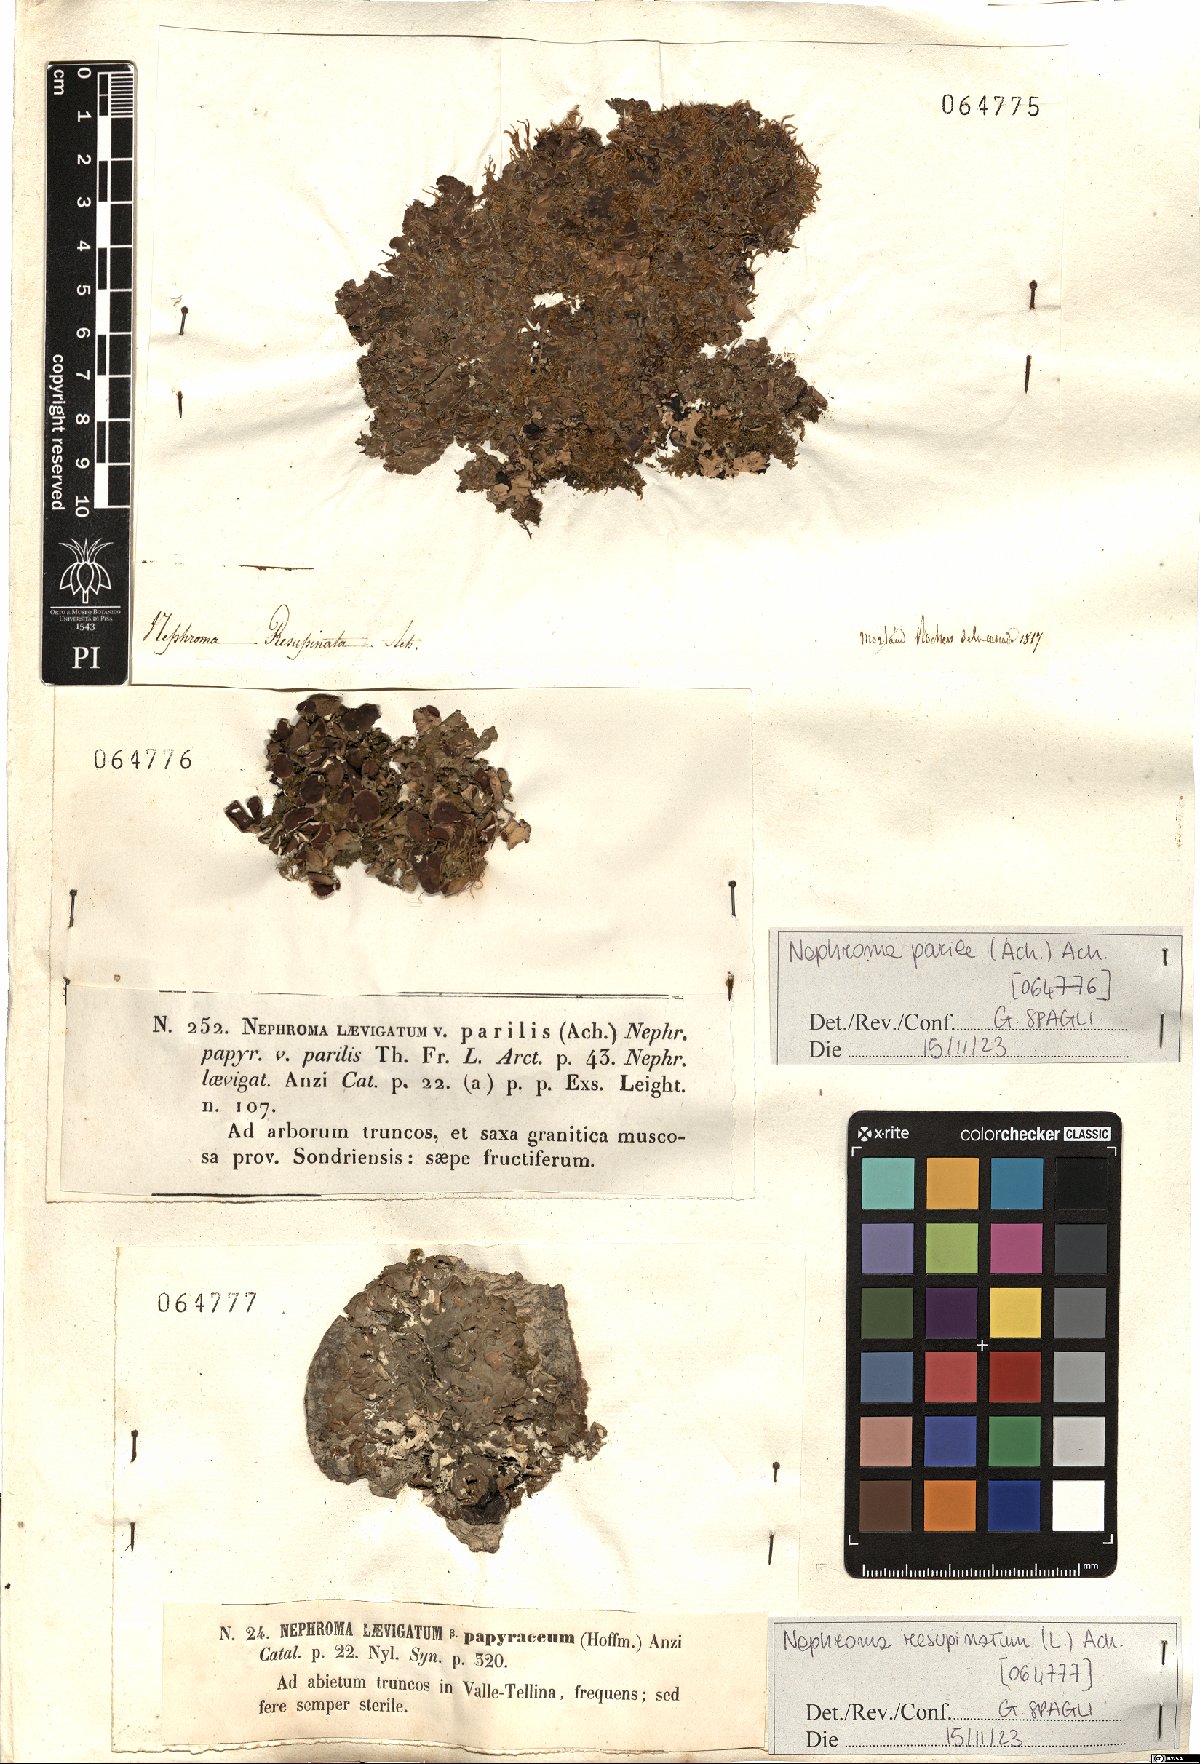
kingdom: Fungi
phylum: Ascomycota
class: Lecanoromycetes
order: Peltigerales
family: Nephromataceae
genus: Nephroma
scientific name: Nephroma parile
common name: Powdery kidney lichen
